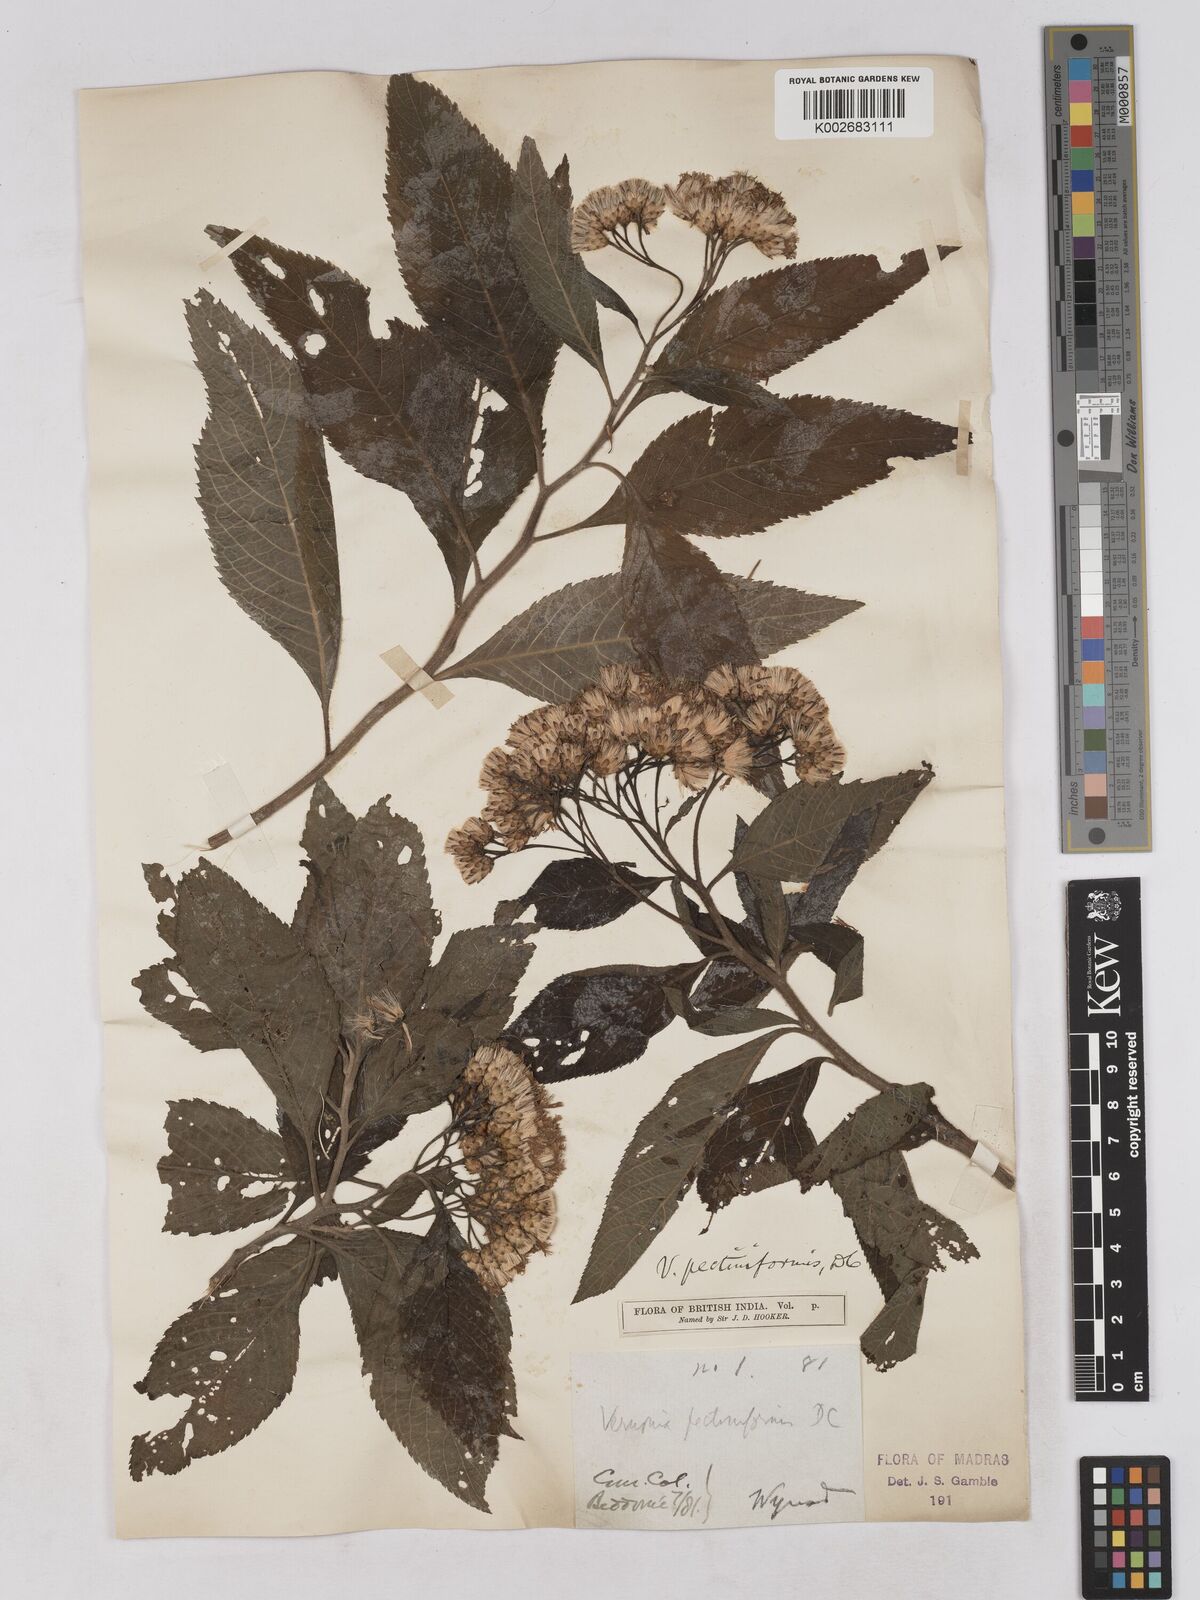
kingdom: Plantae
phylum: Tracheophyta
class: Magnoliopsida
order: Asterales
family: Asteraceae
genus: Gymnanthemum
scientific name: Gymnanthemum pectiniforme
